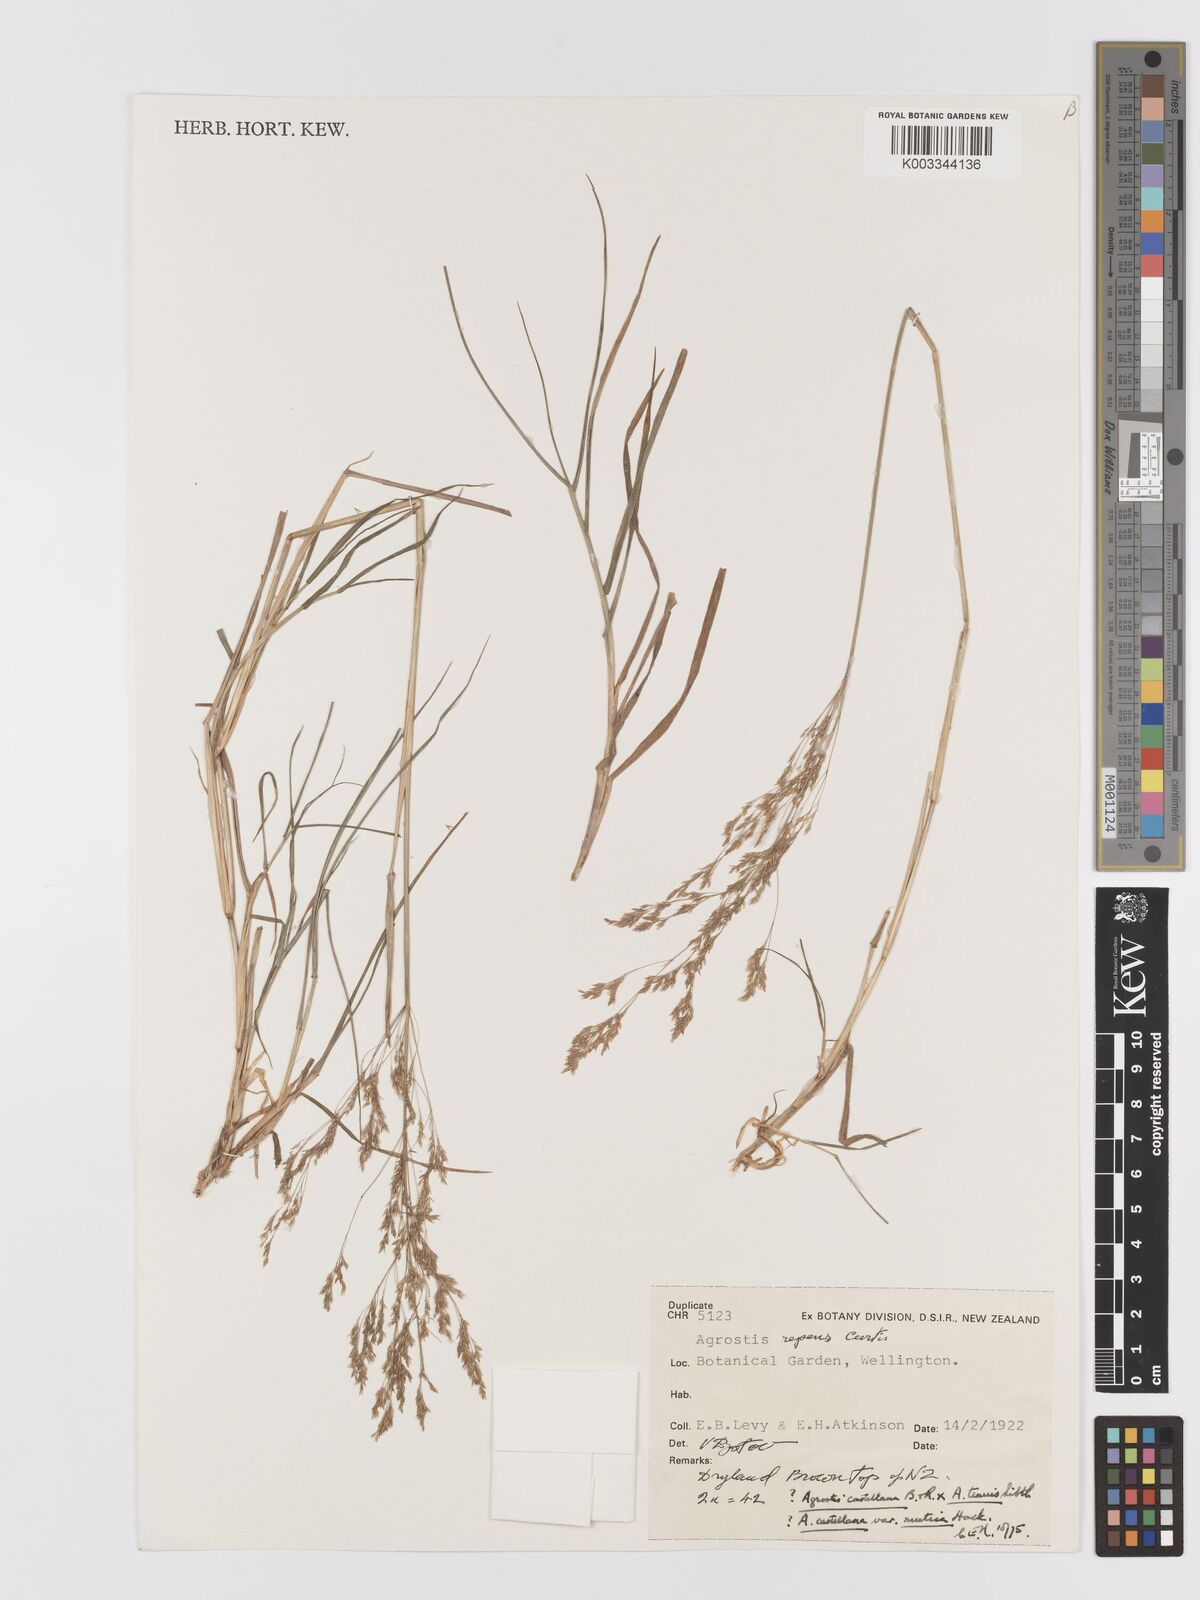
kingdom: Plantae
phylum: Tracheophyta
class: Liliopsida
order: Poales
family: Poaceae
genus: Agrostis
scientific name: Agrostis castellana
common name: Highland bent
